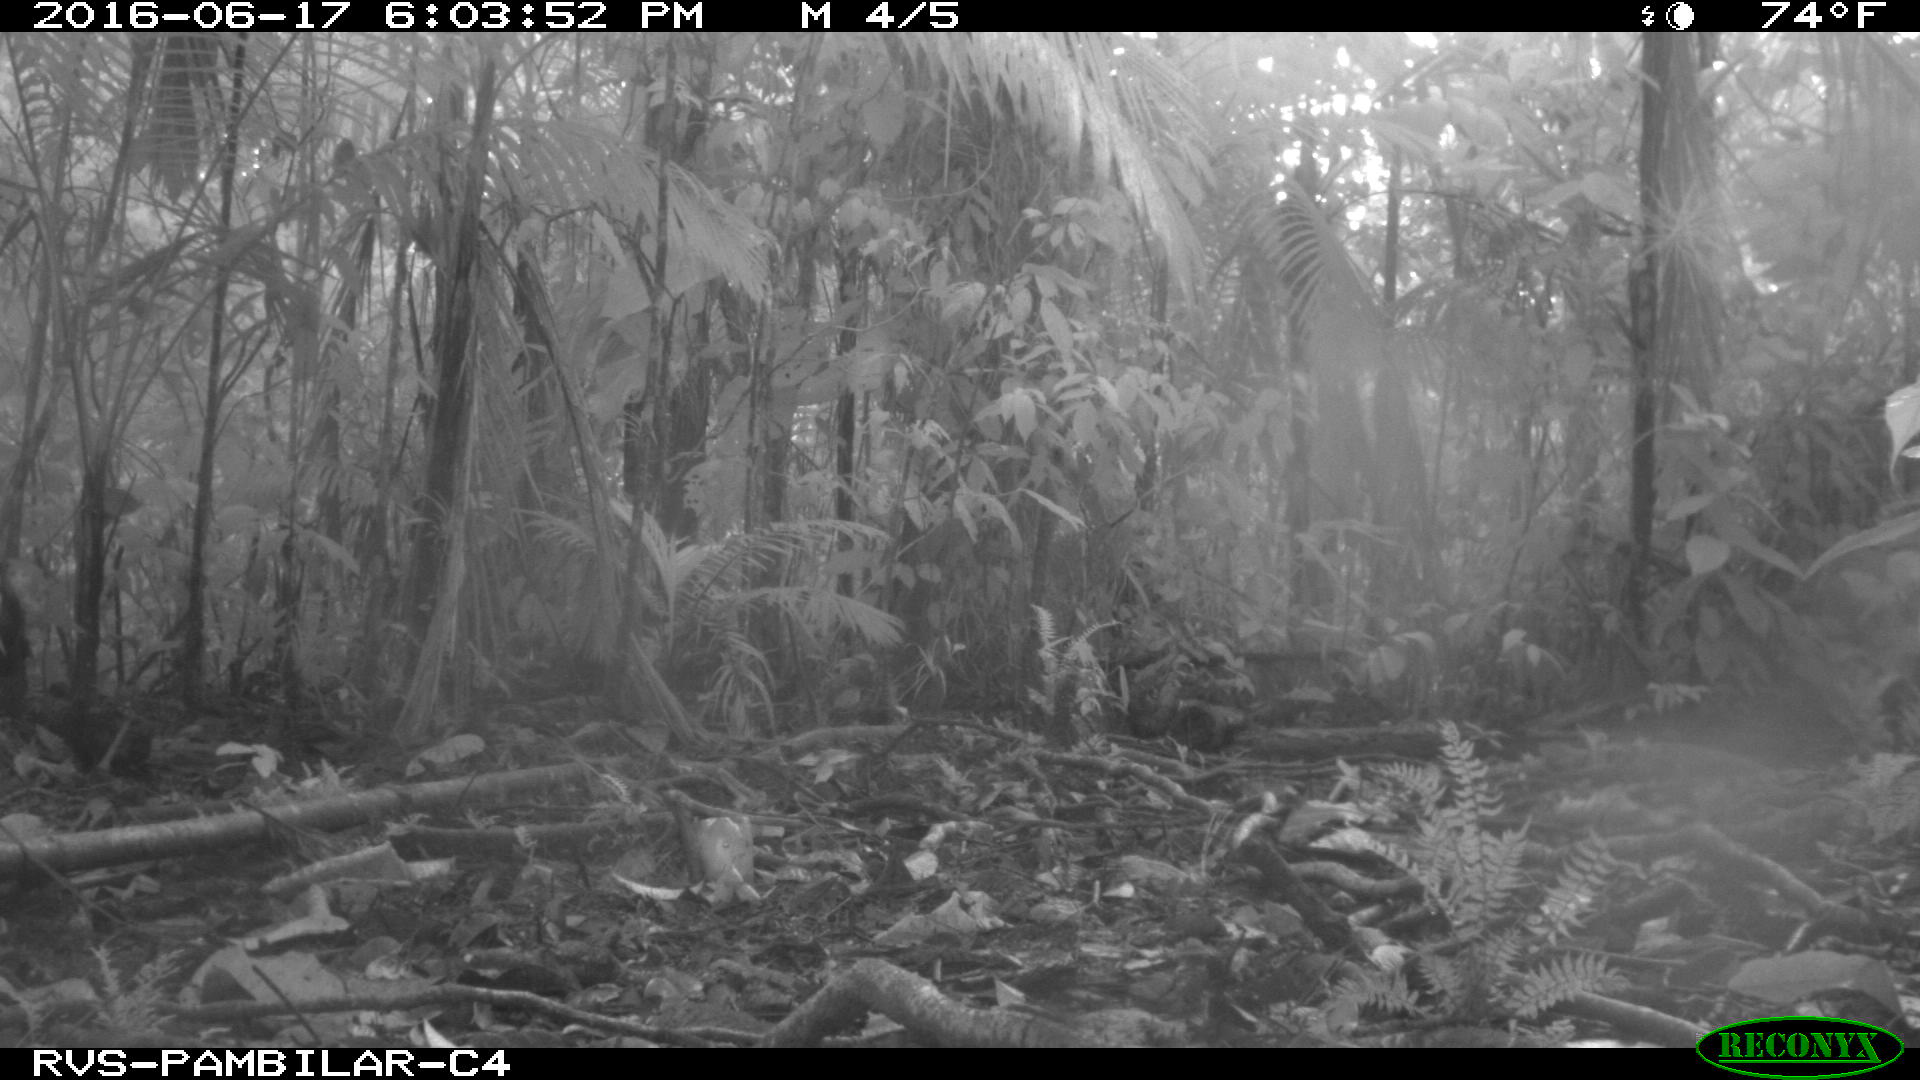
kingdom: Animalia
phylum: Chordata
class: Mammalia
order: Rodentia
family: Dasyproctidae
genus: Dasyprocta
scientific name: Dasyprocta punctata
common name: Central american agouti
